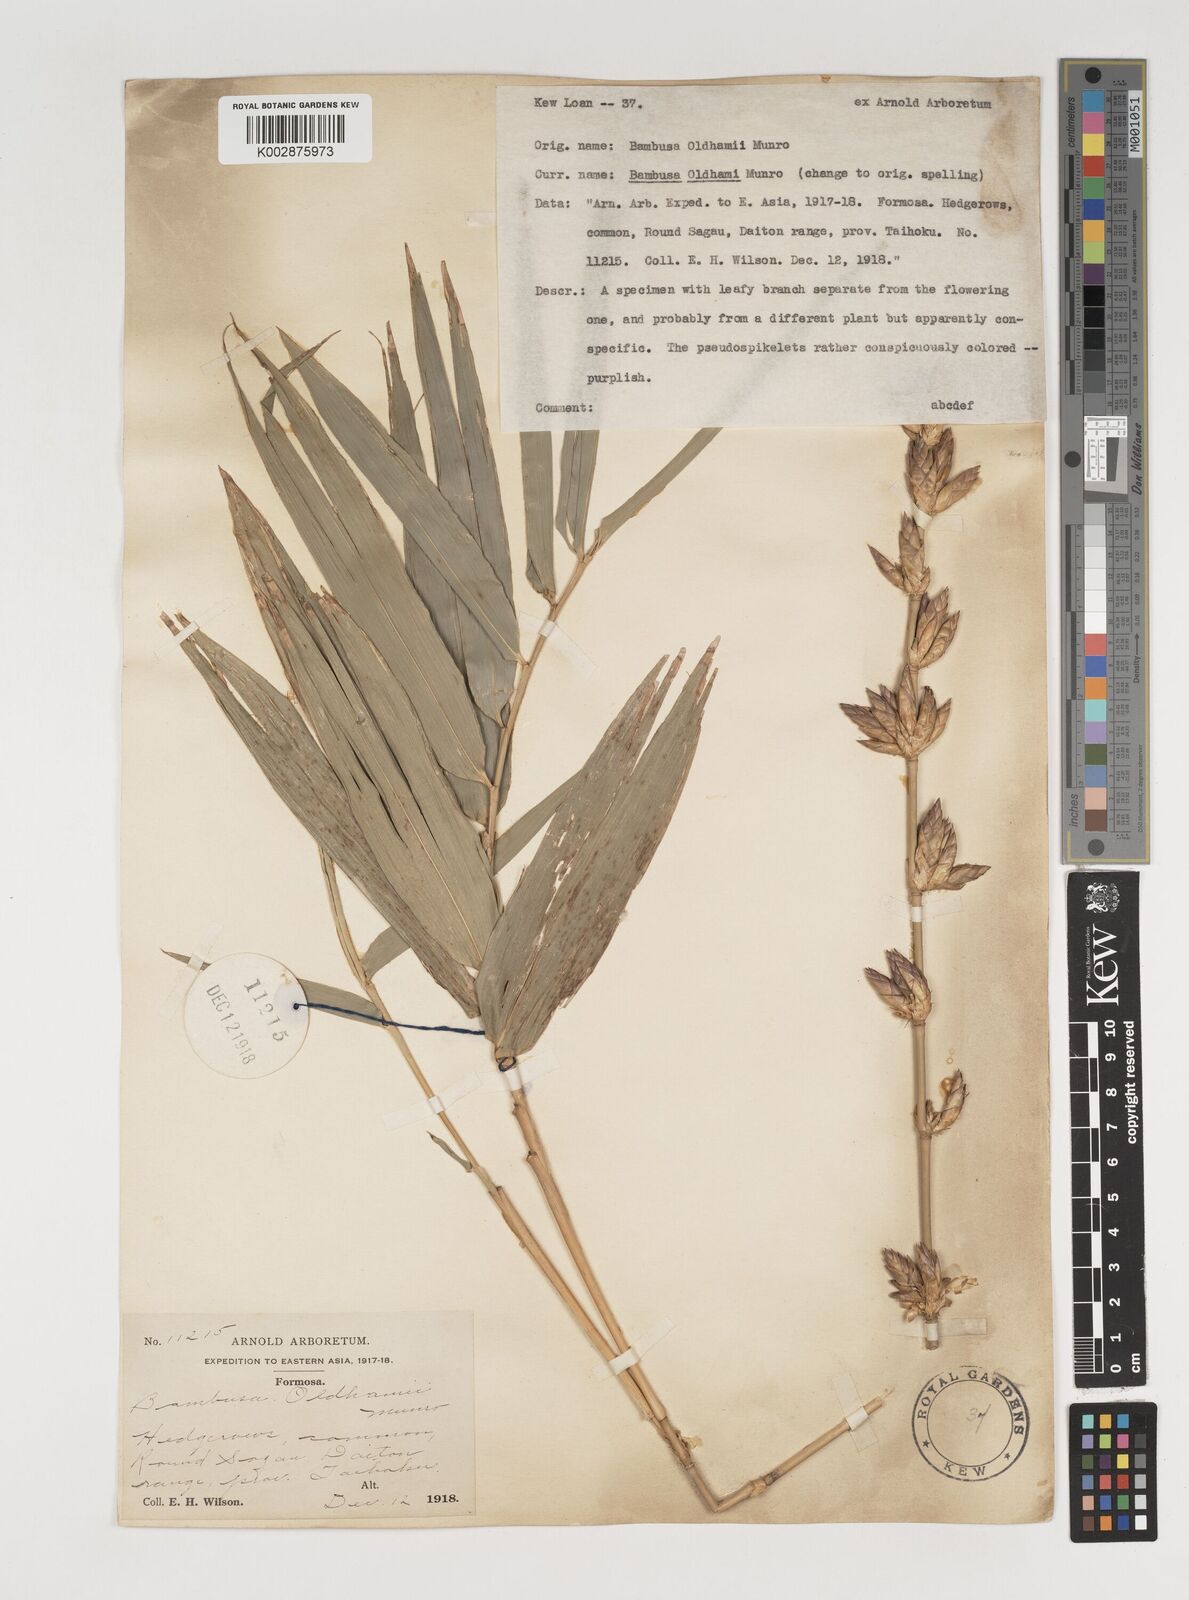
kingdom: Plantae
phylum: Tracheophyta
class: Liliopsida
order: Poales
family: Poaceae
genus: Bambusa
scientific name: Bambusa oldhamii
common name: Giant timber bamboo
